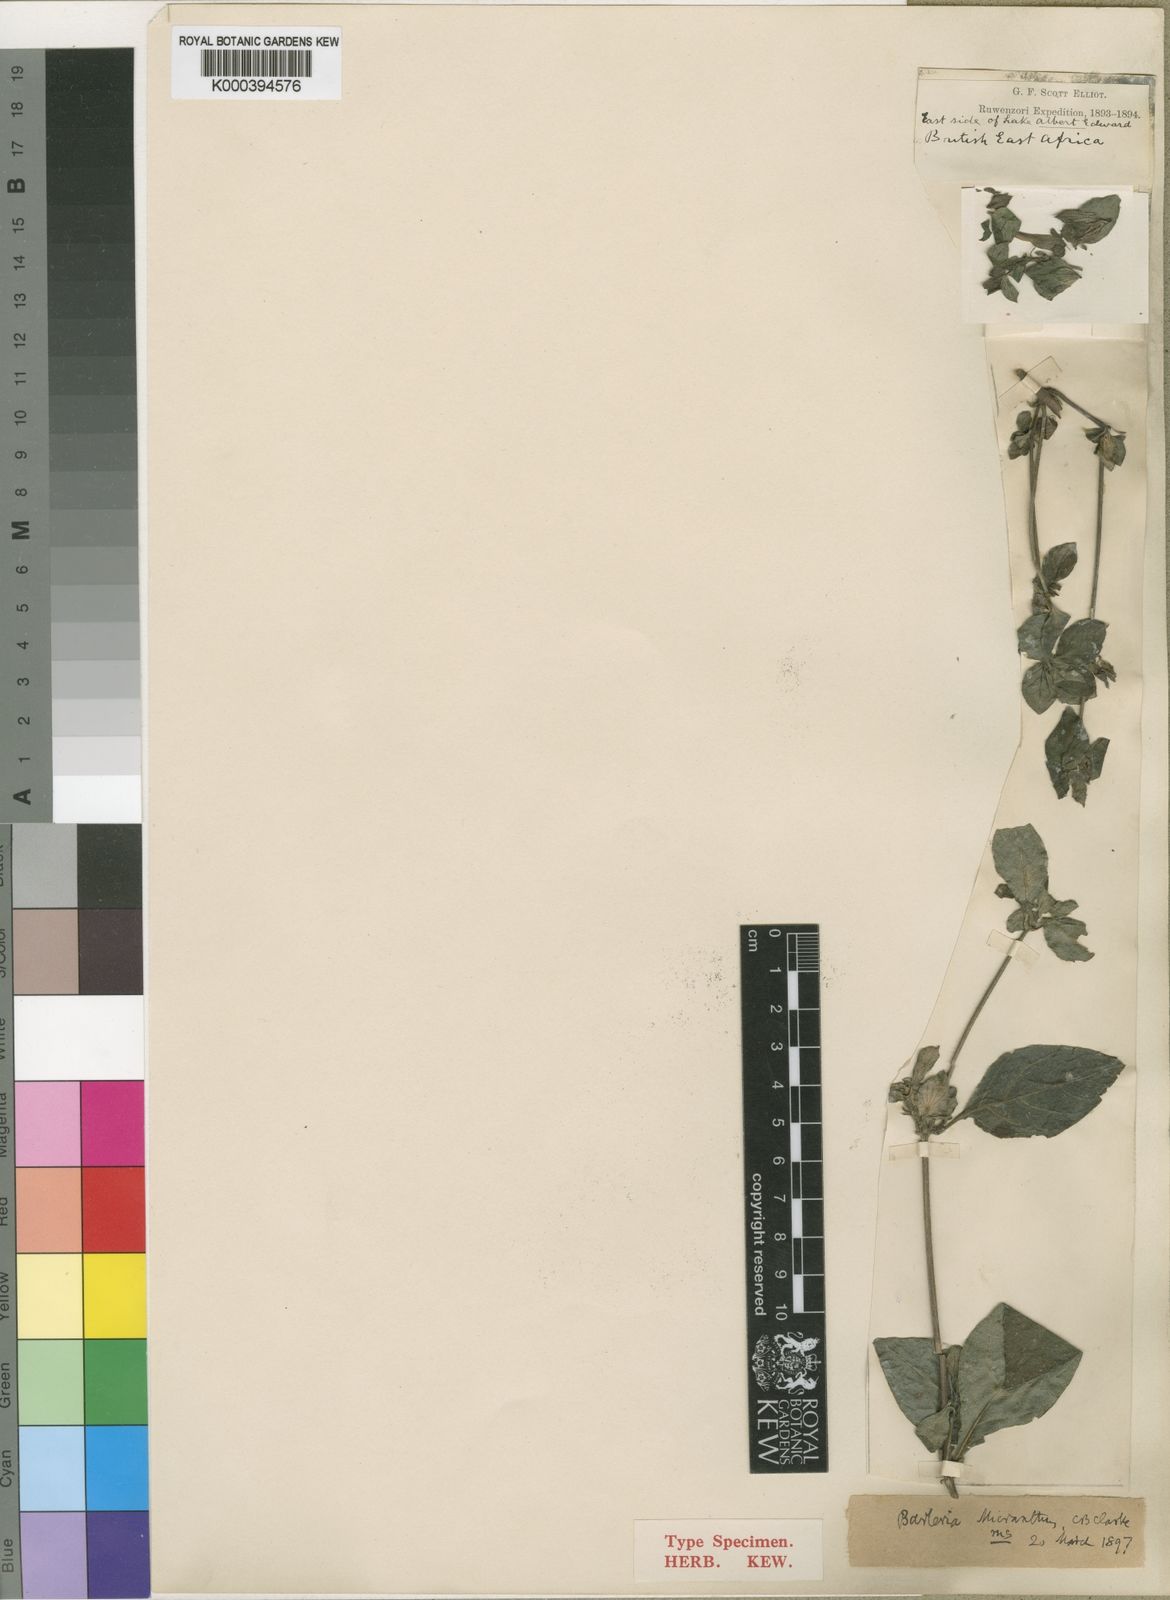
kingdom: Plantae
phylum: Tracheophyta
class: Magnoliopsida
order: Lamiales
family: Acanthaceae
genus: Barleria
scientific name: Barleria ventricosa
